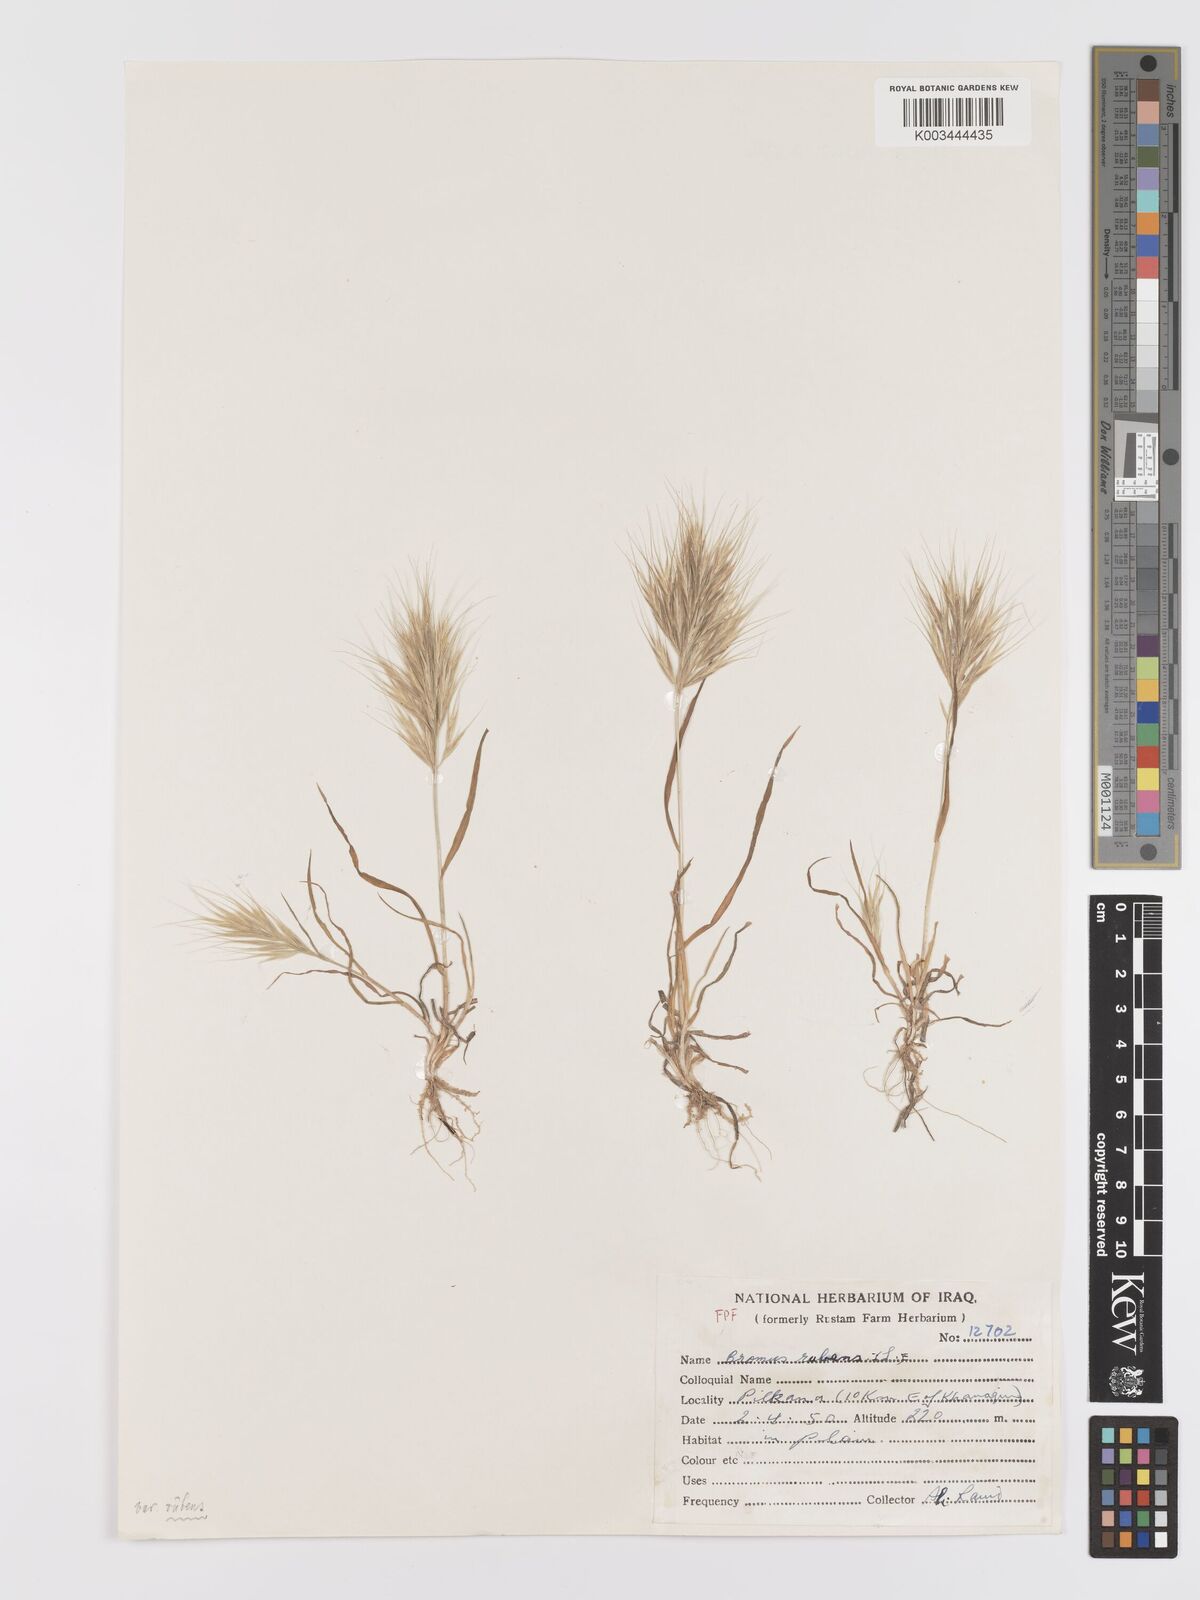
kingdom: Plantae
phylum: Tracheophyta
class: Liliopsida
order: Poales
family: Poaceae
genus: Bromus
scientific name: Bromus rubens
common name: Red brome
